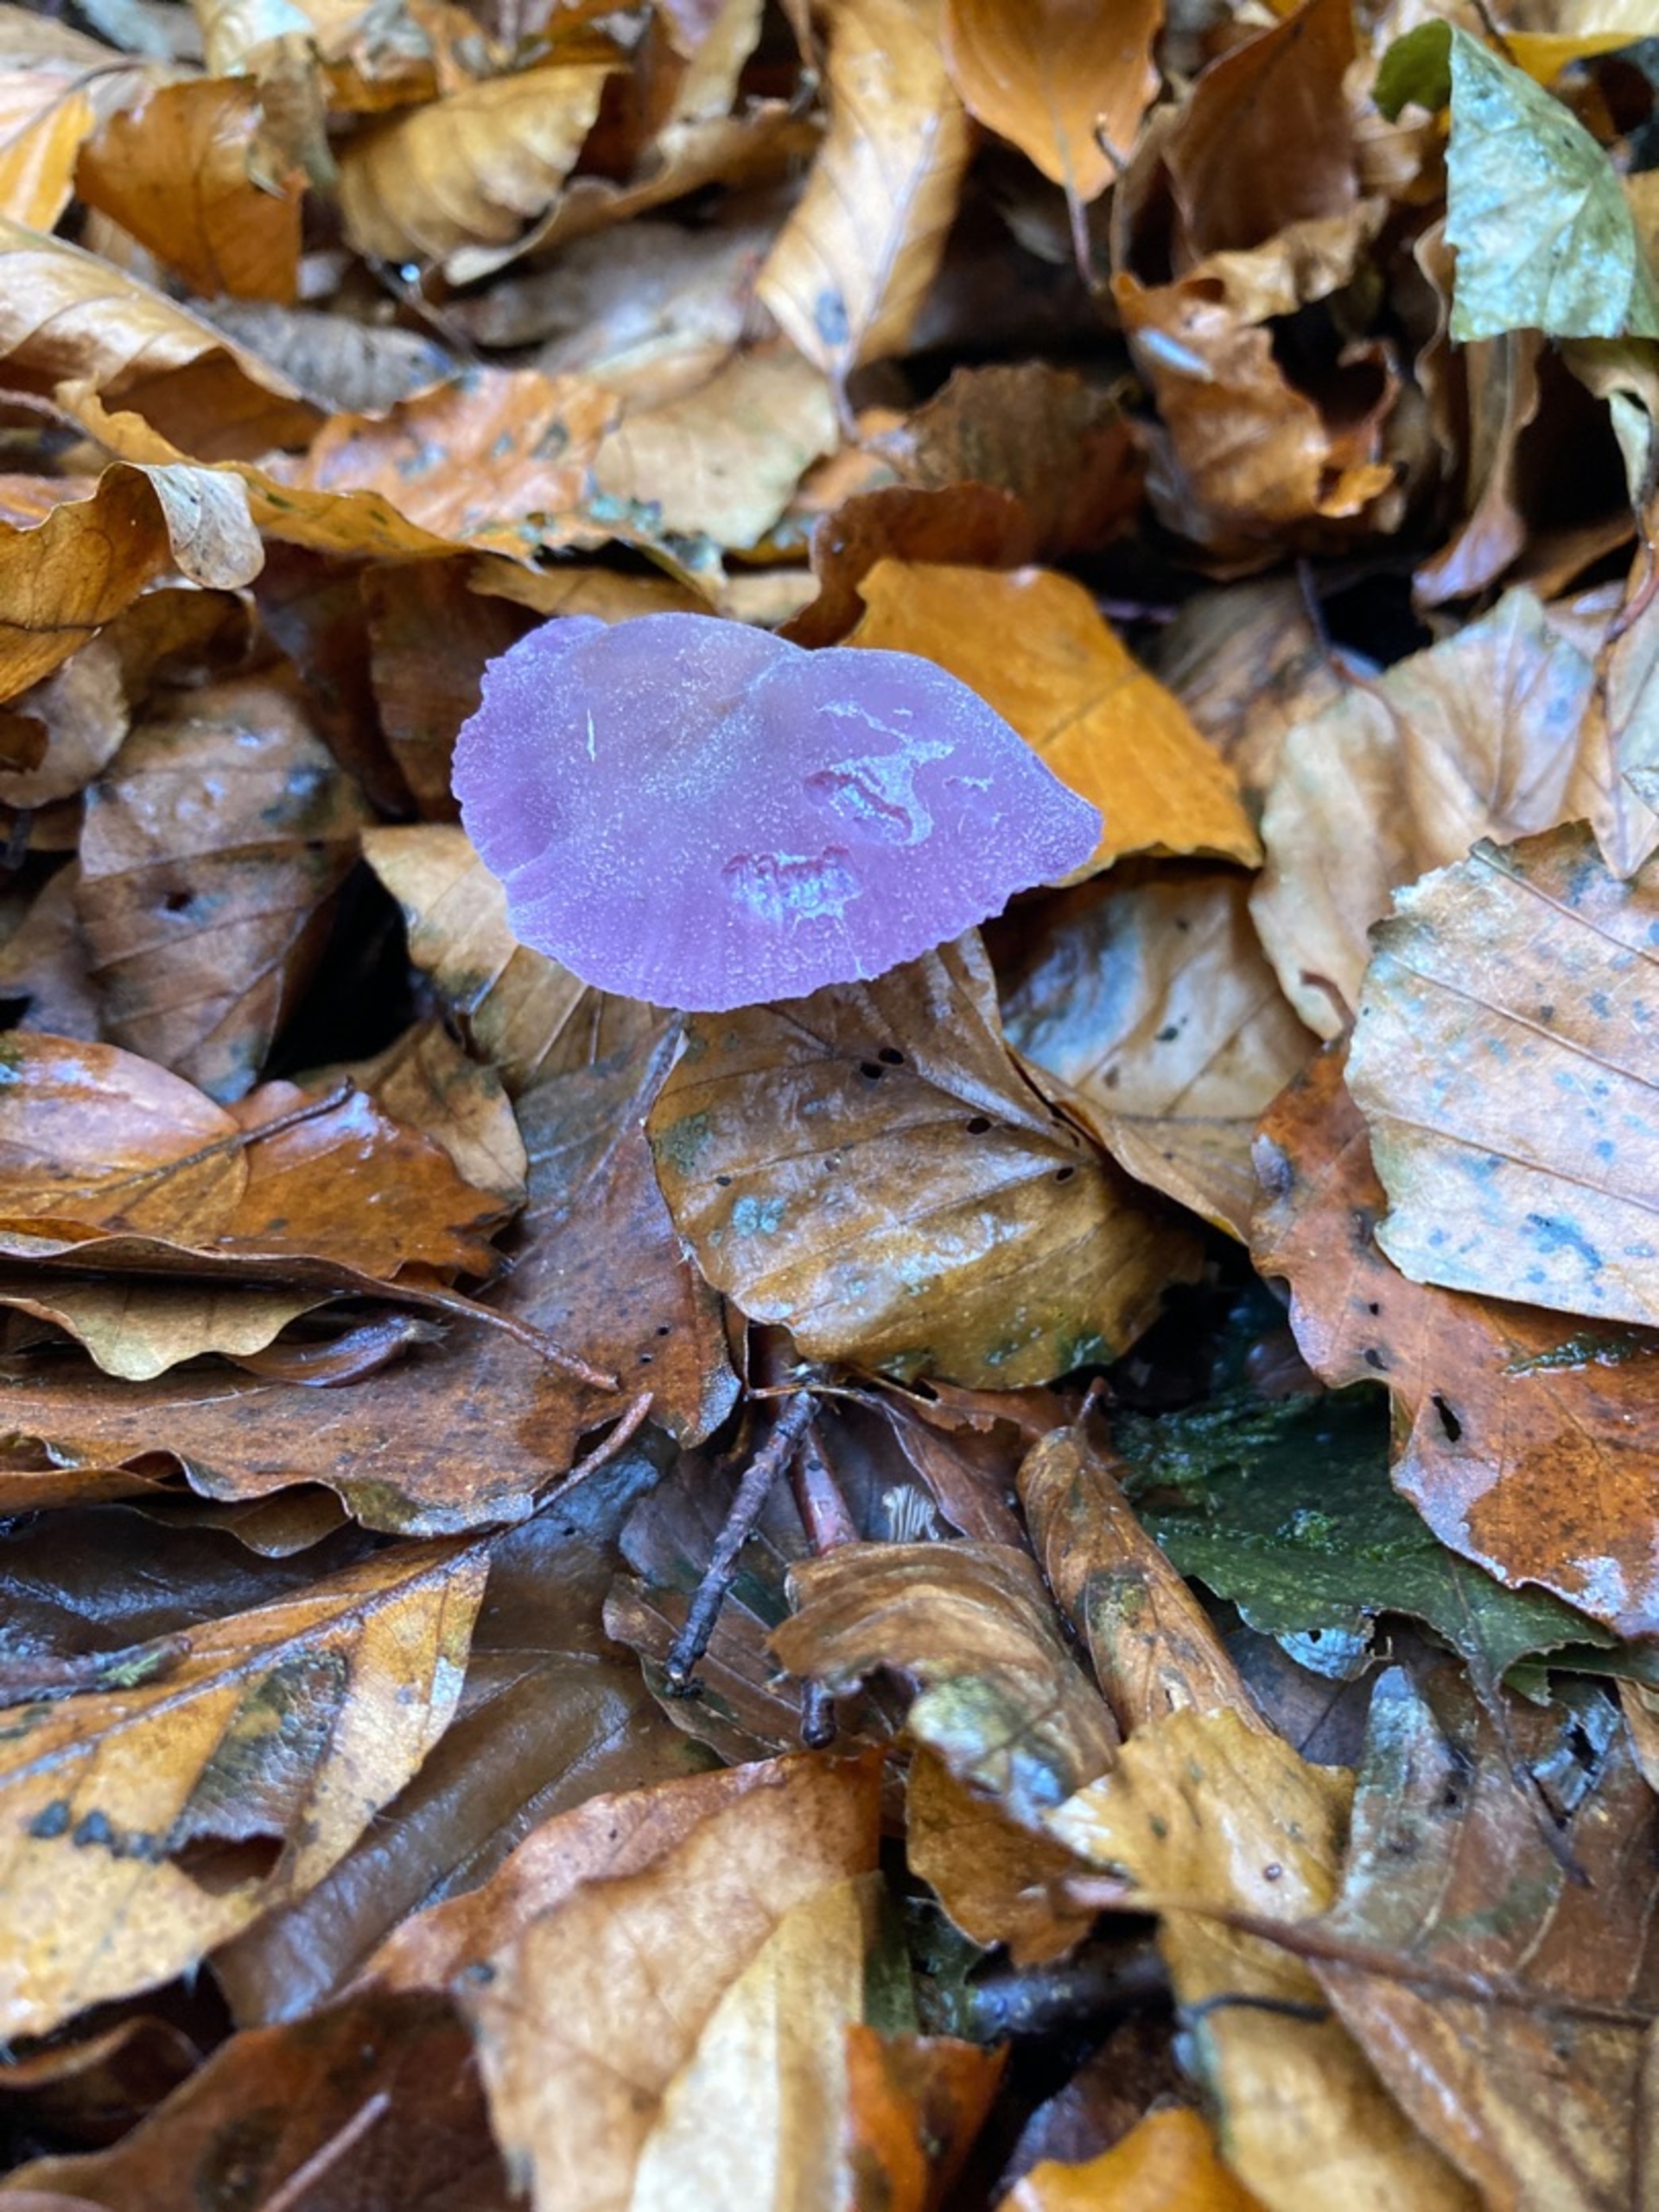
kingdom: Fungi
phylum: Basidiomycota
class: Agaricomycetes
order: Agaricales
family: Hydnangiaceae
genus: Laccaria
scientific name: Laccaria amethystina
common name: Violet ametysthat
